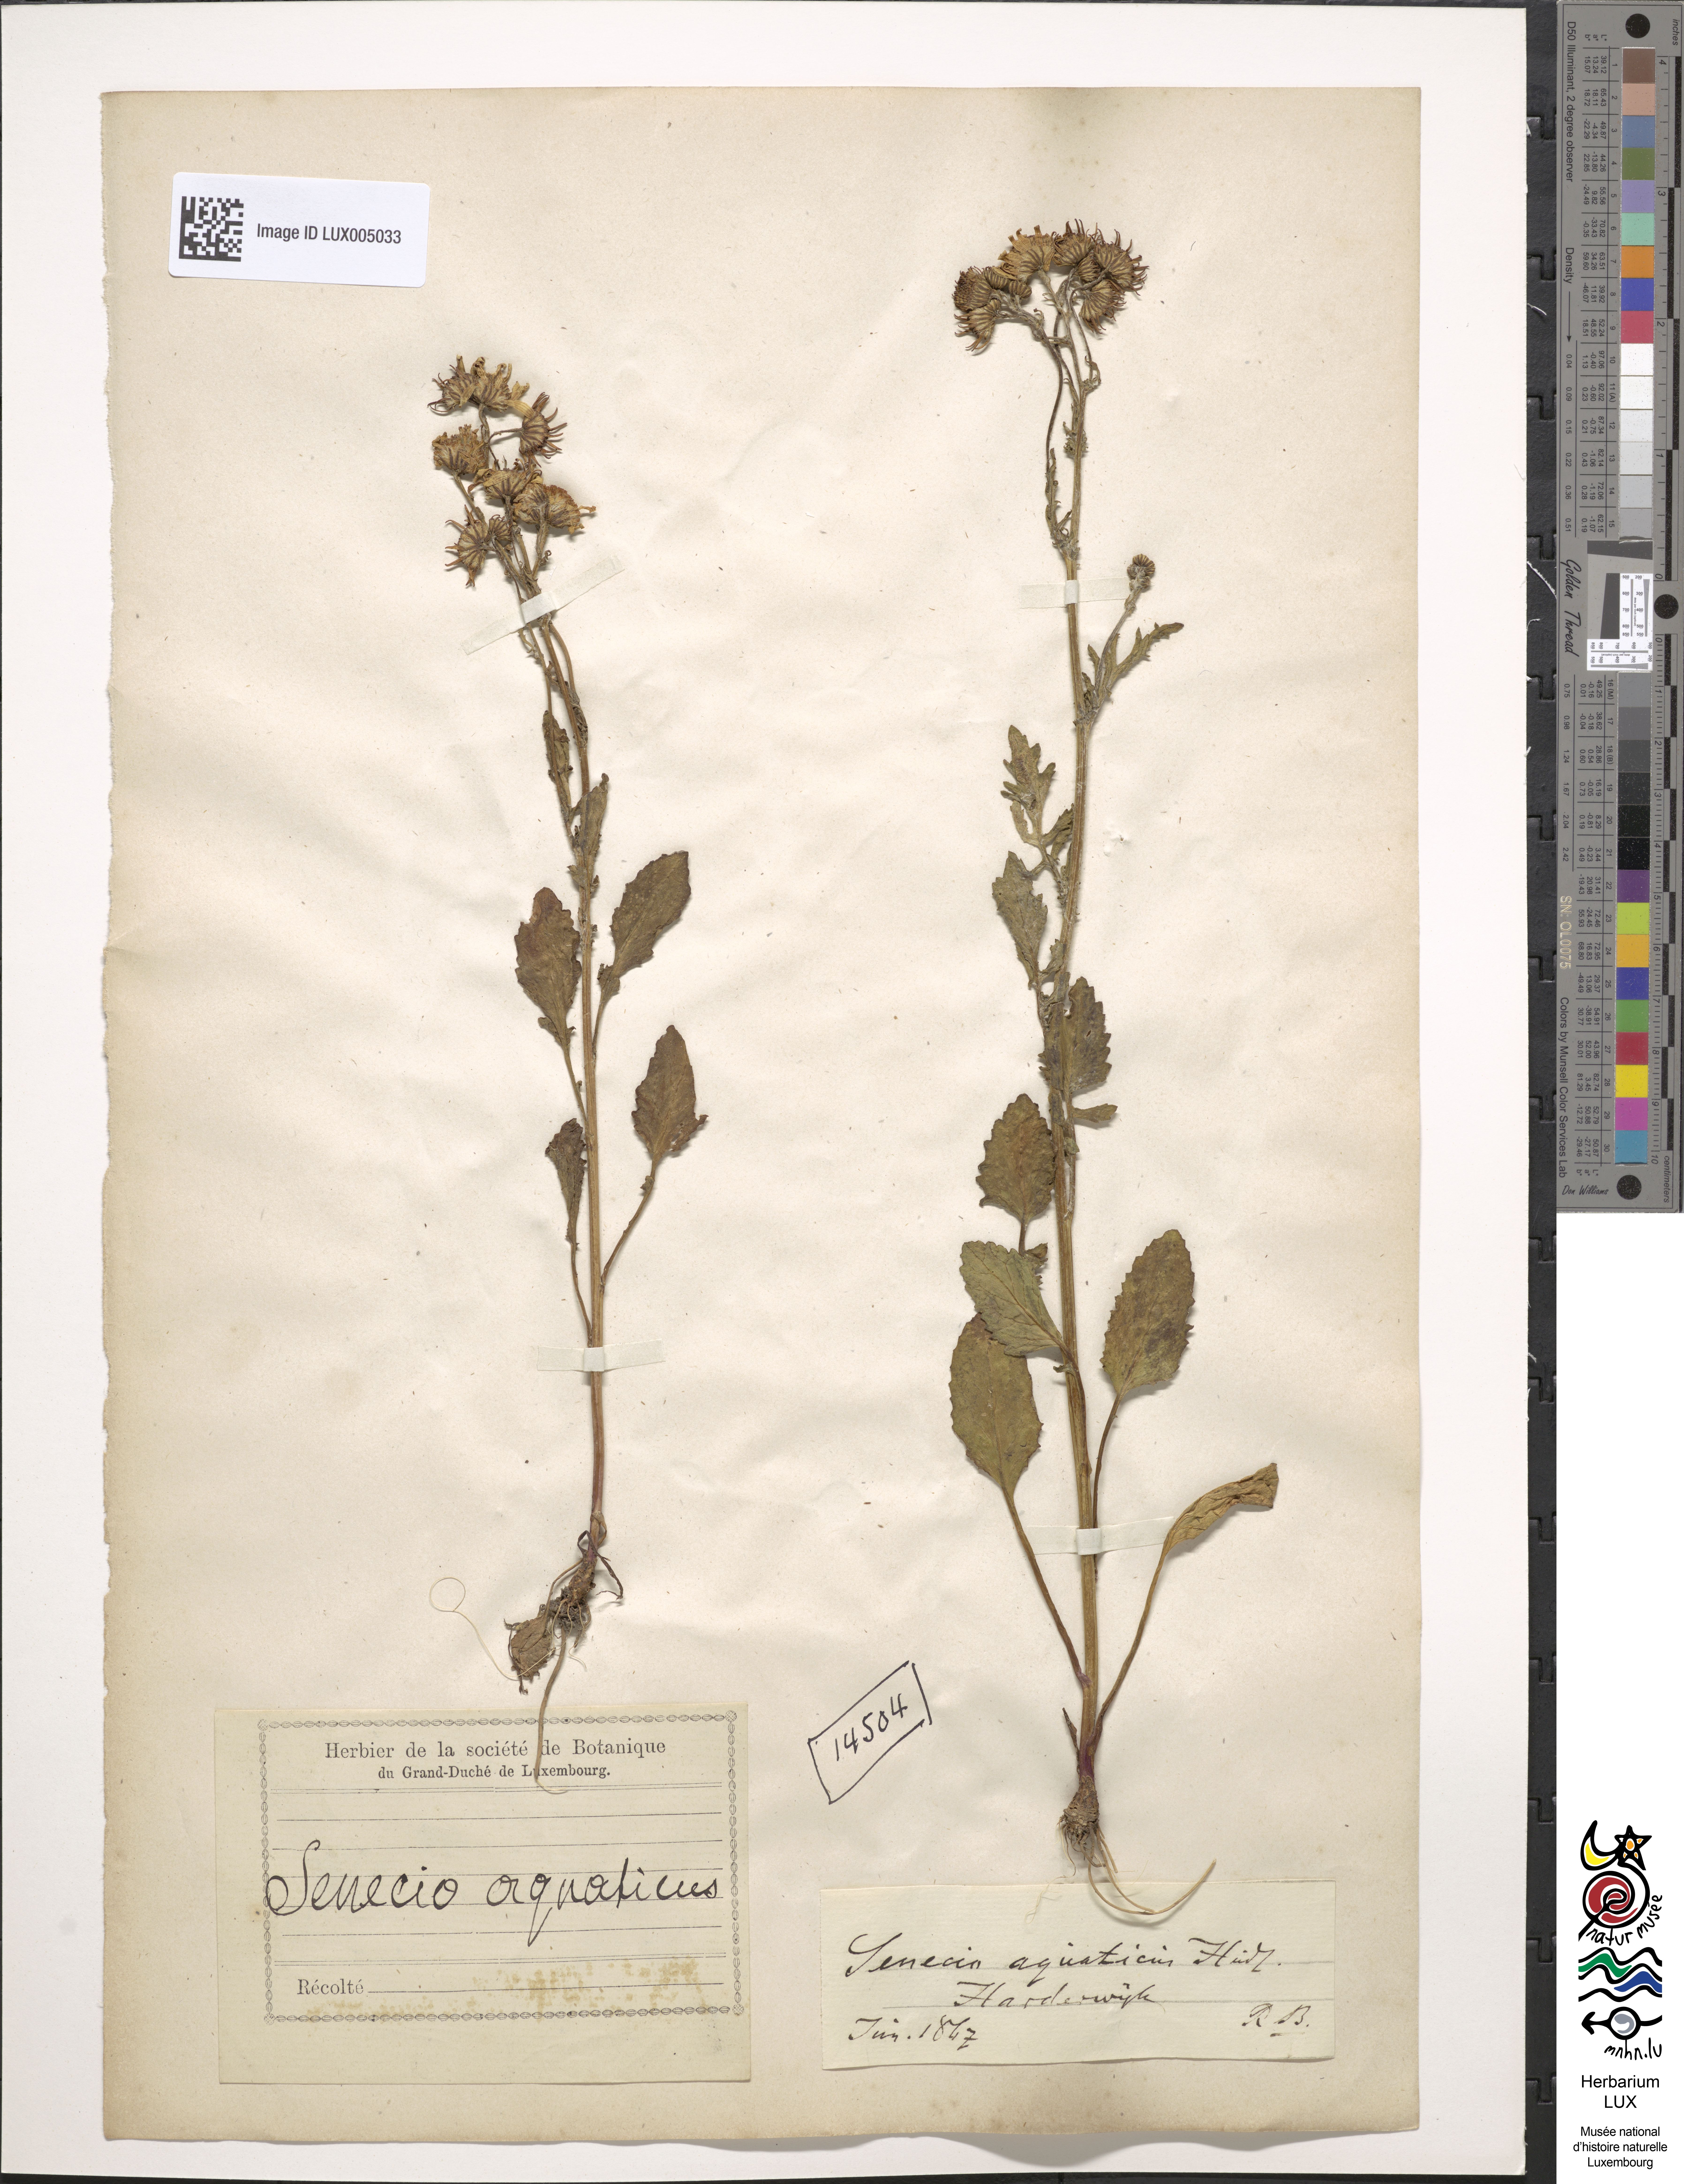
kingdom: Plantae
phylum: Tracheophyta
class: Magnoliopsida
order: Asterales
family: Asteraceae
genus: Jacobaea
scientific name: Jacobaea aquatica
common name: Water ragwort
